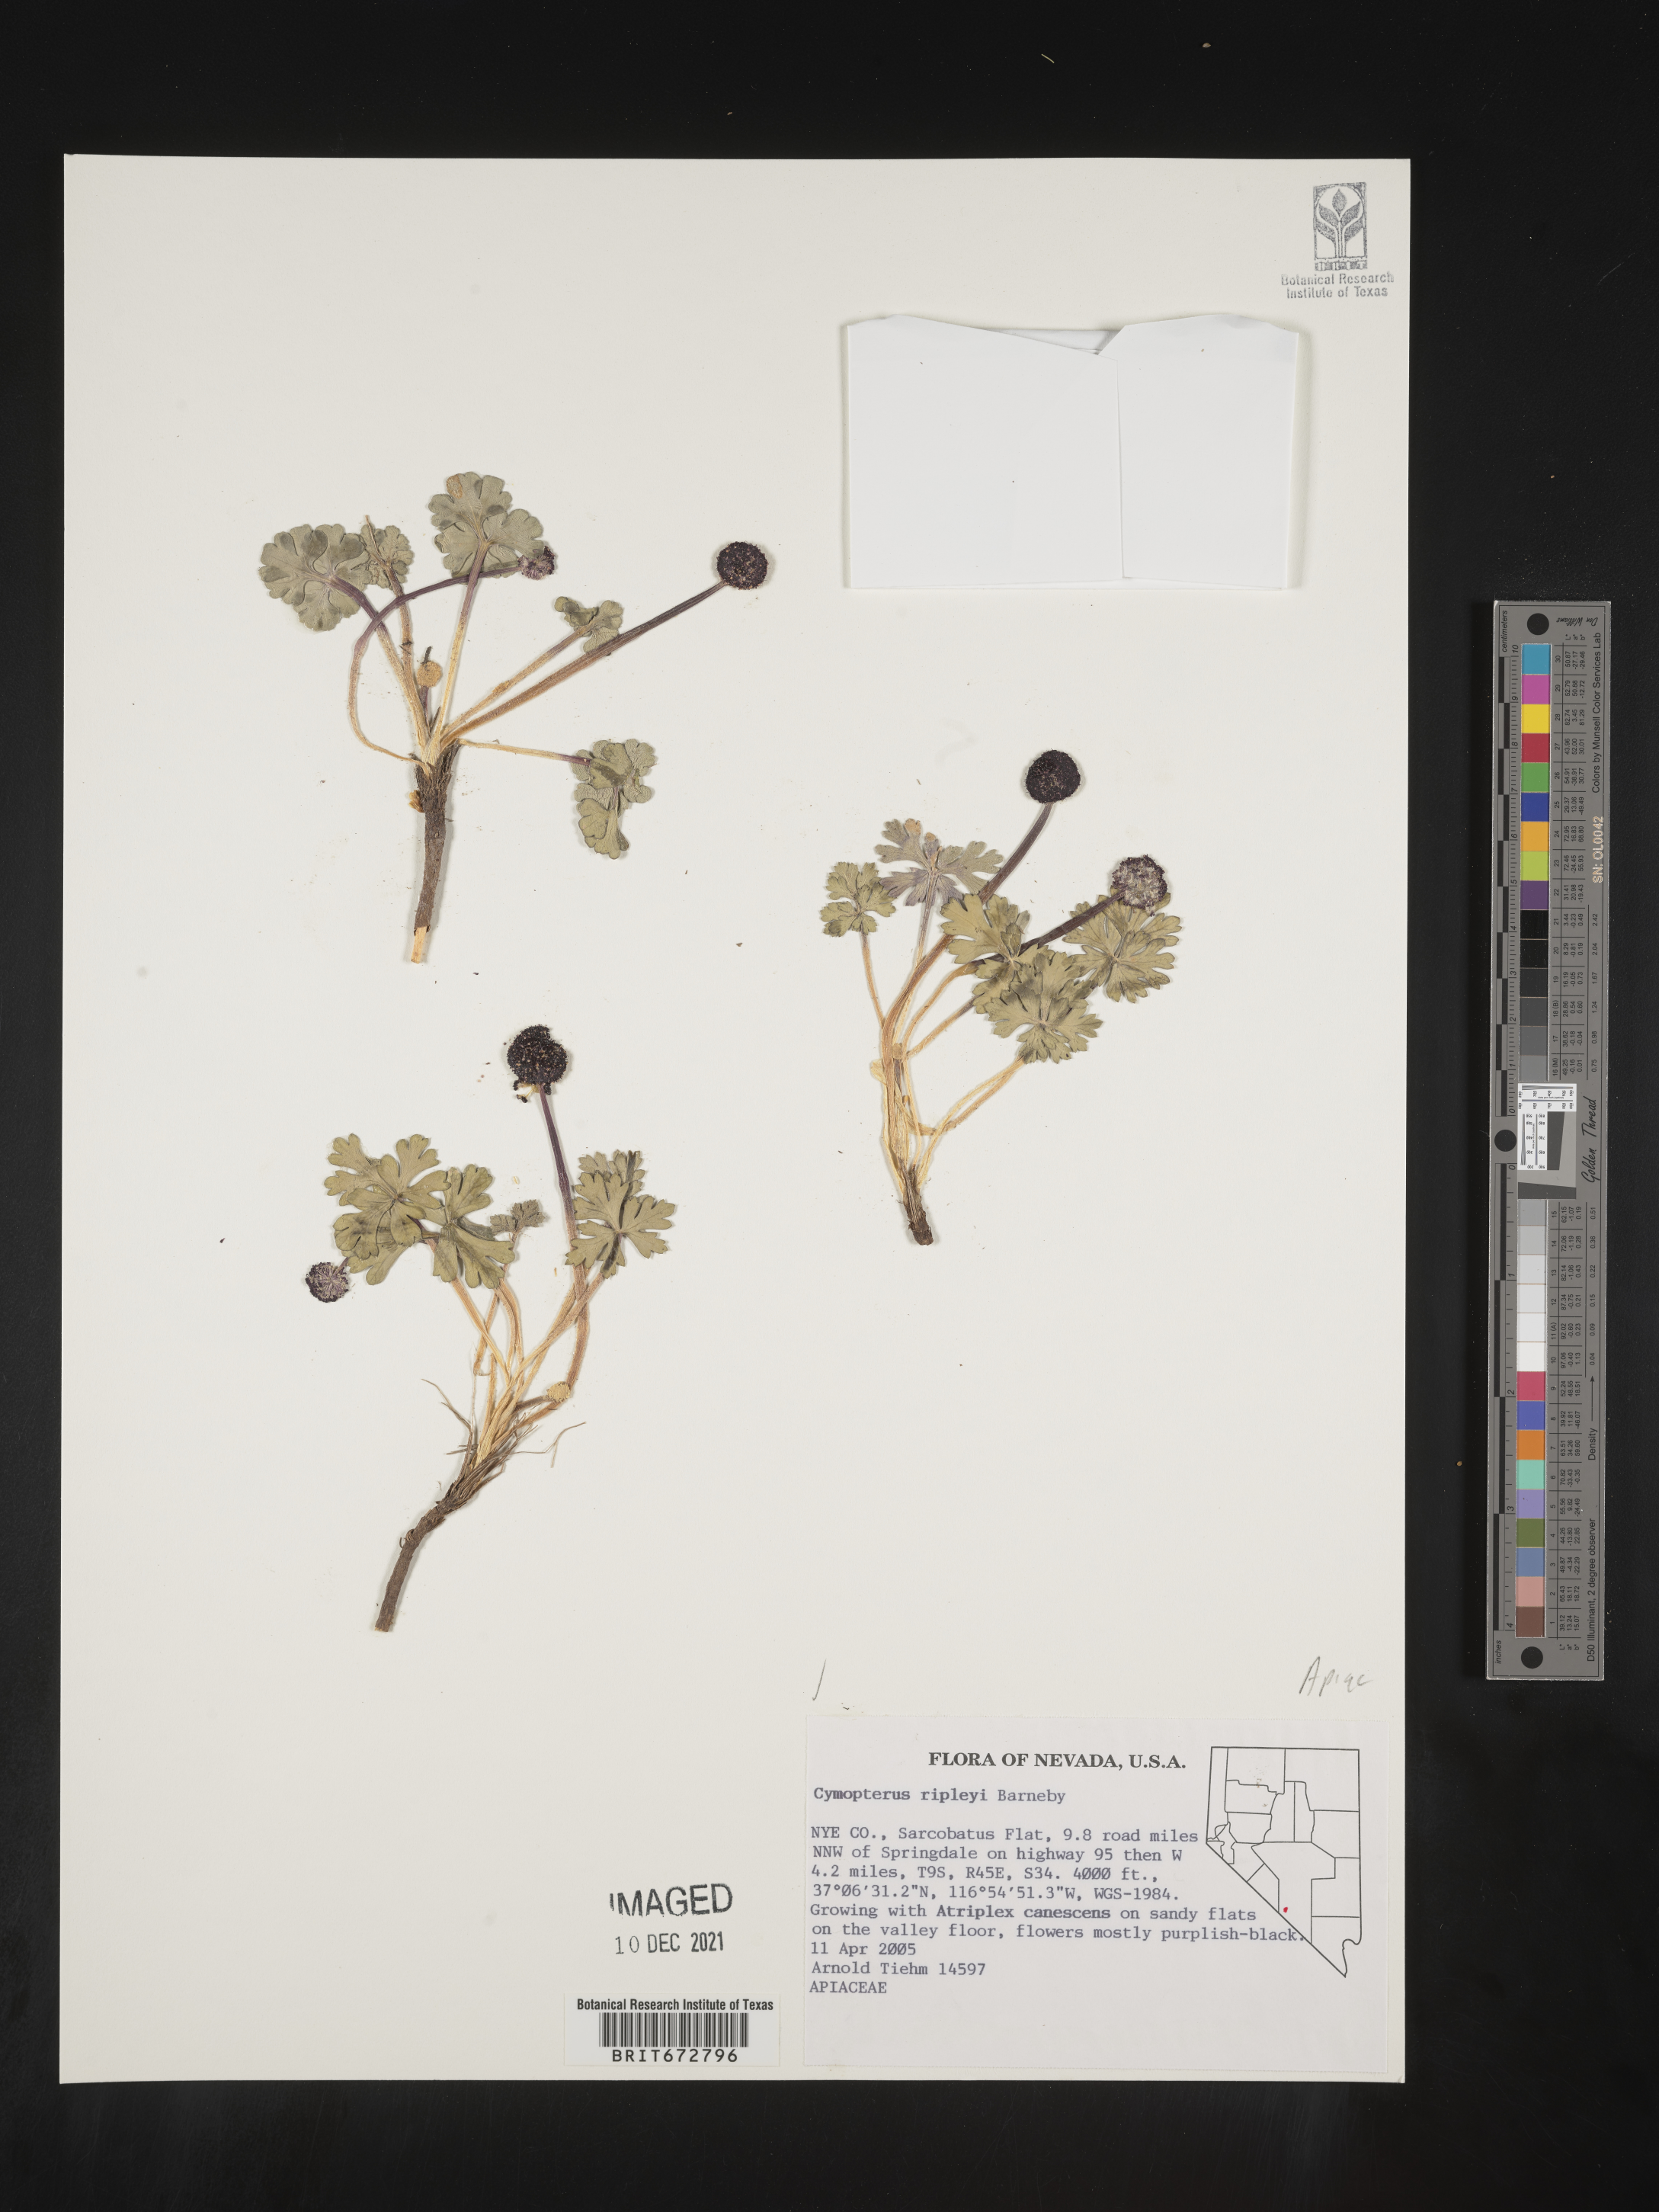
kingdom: Plantae
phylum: Tracheophyta
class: Magnoliopsida
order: Apiales
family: Apiaceae
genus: Cymopterus
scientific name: Cymopterus ripleyi
